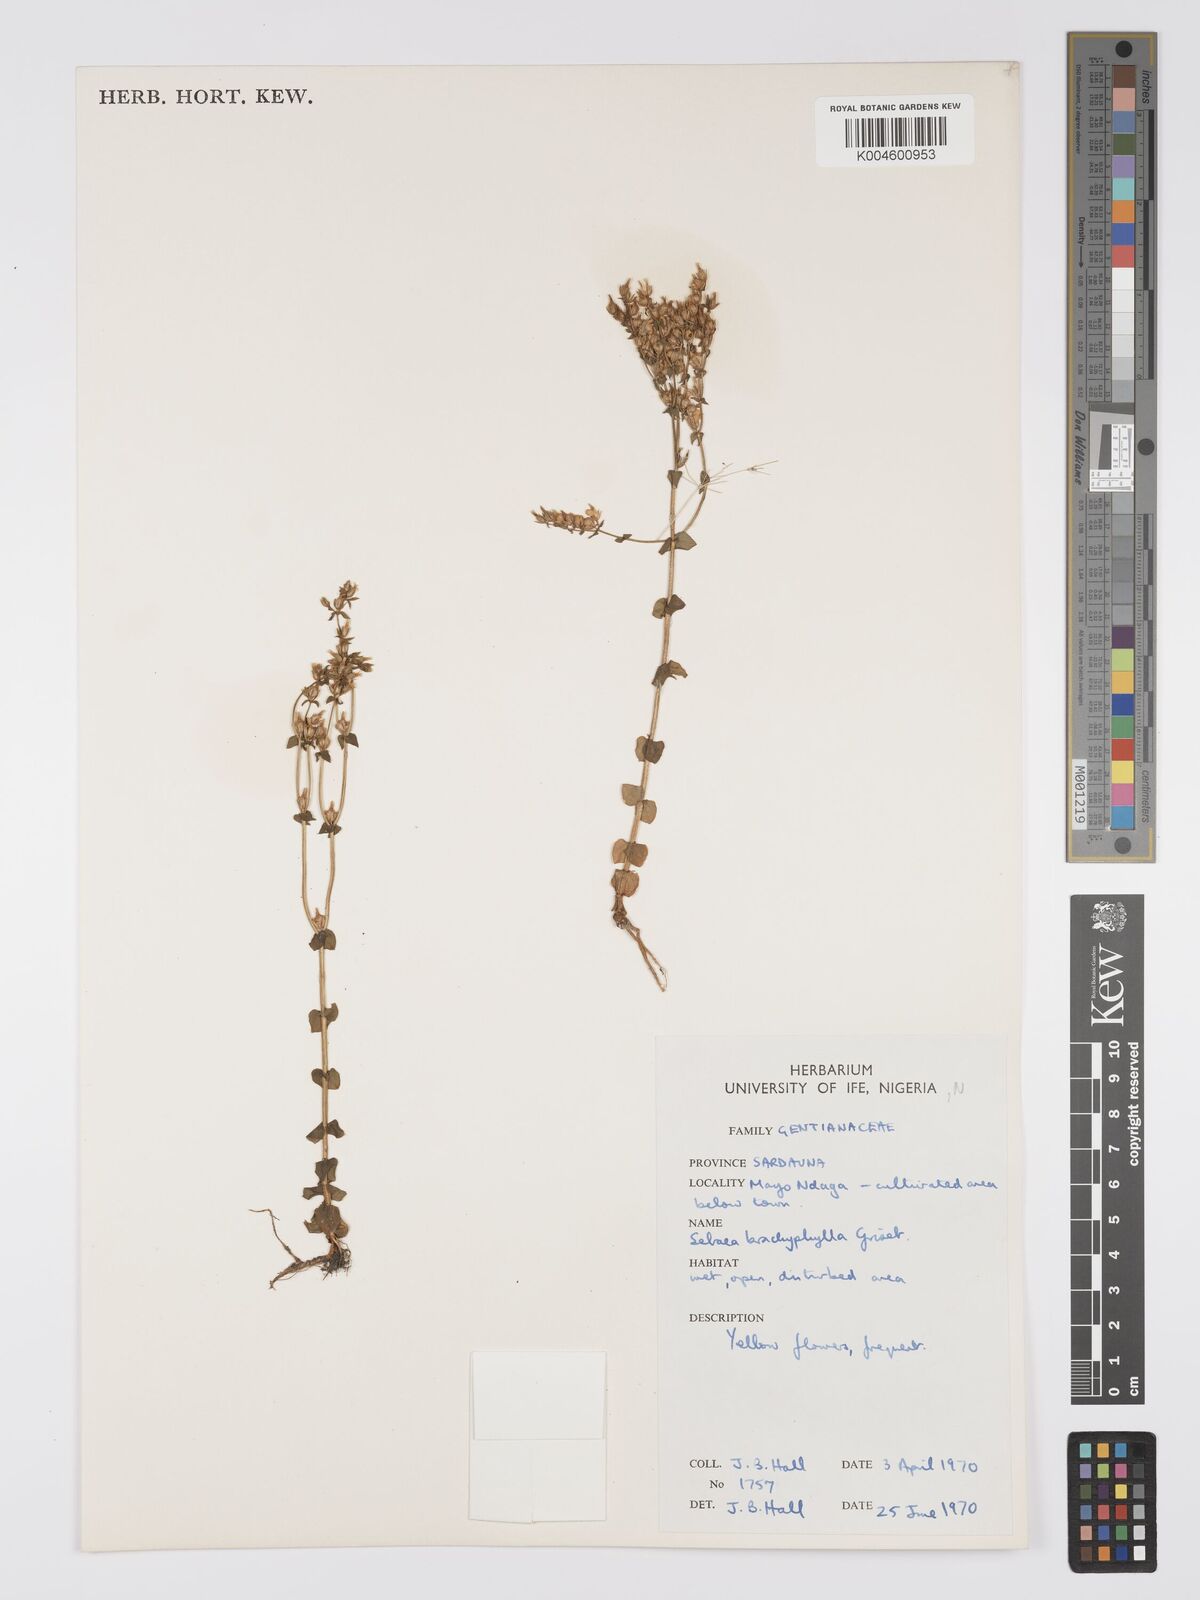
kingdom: Plantae
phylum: Tracheophyta
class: Magnoliopsida
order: Gentianales
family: Gentianaceae
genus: Sebaea
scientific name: Sebaea brachyphylla
